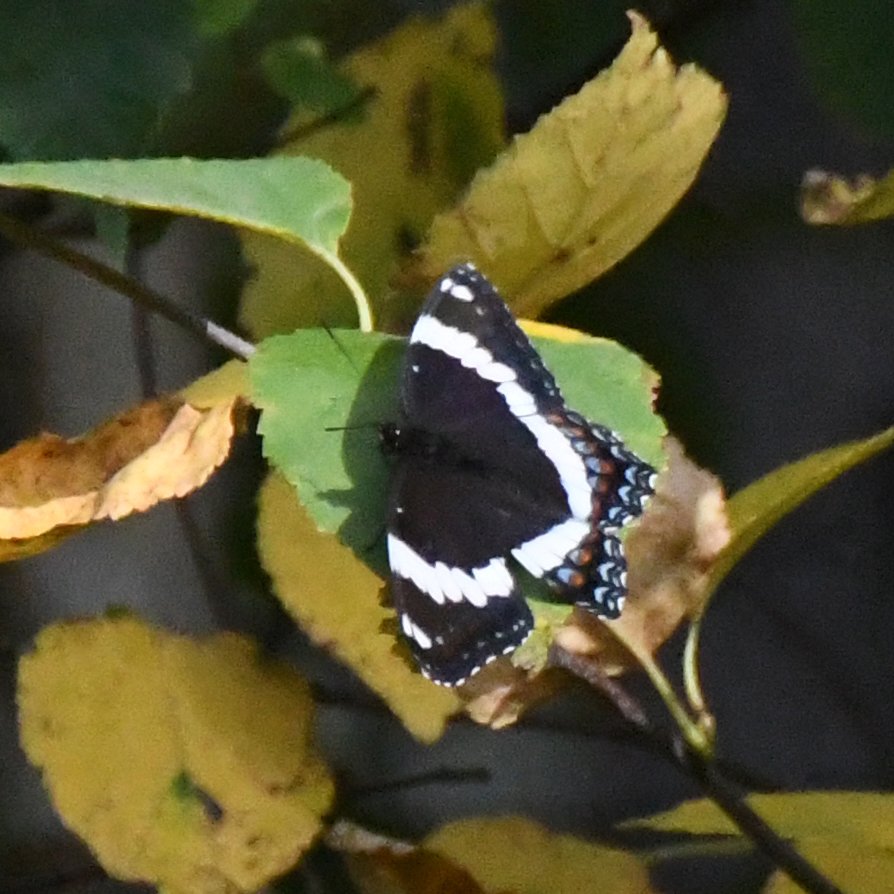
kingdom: Animalia
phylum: Arthropoda
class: Insecta
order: Lepidoptera
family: Nymphalidae
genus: Limenitis
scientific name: Limenitis arthemis
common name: Red-spotted Admiral
